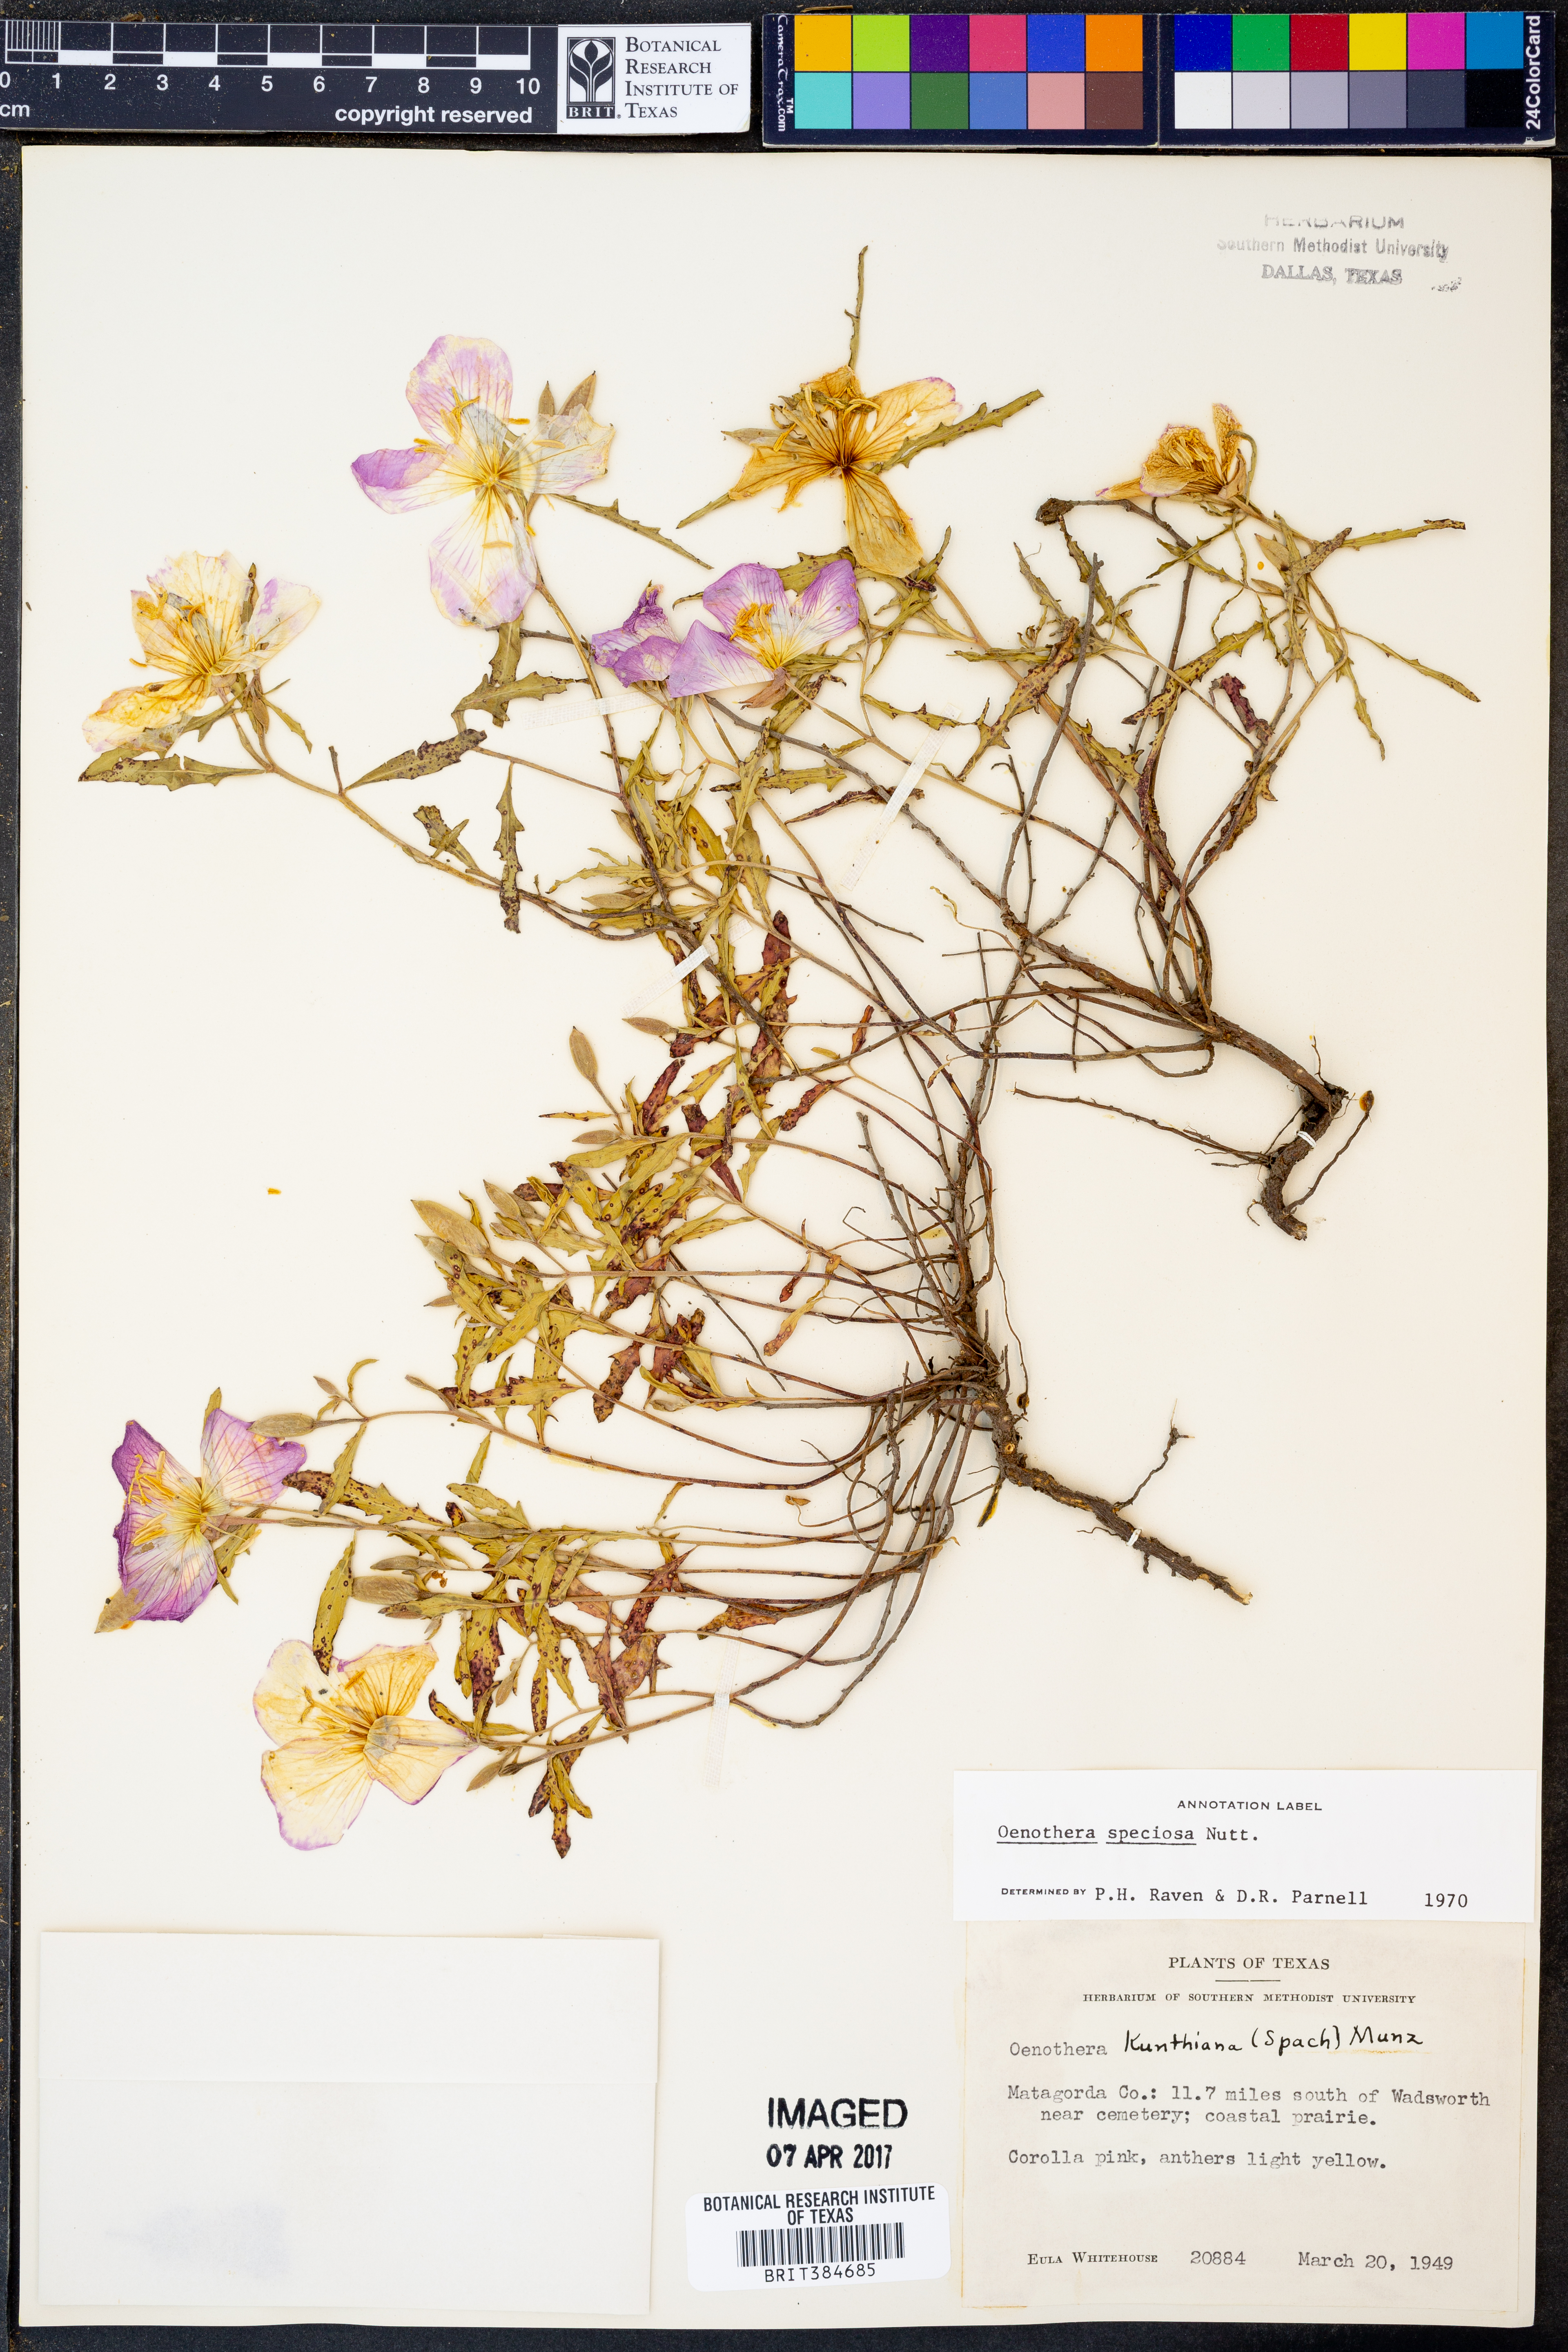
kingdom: Plantae
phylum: Tracheophyta
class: Magnoliopsida
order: Myrtales
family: Onagraceae
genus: Oenothera
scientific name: Oenothera speciosa
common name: White evening-primrose
